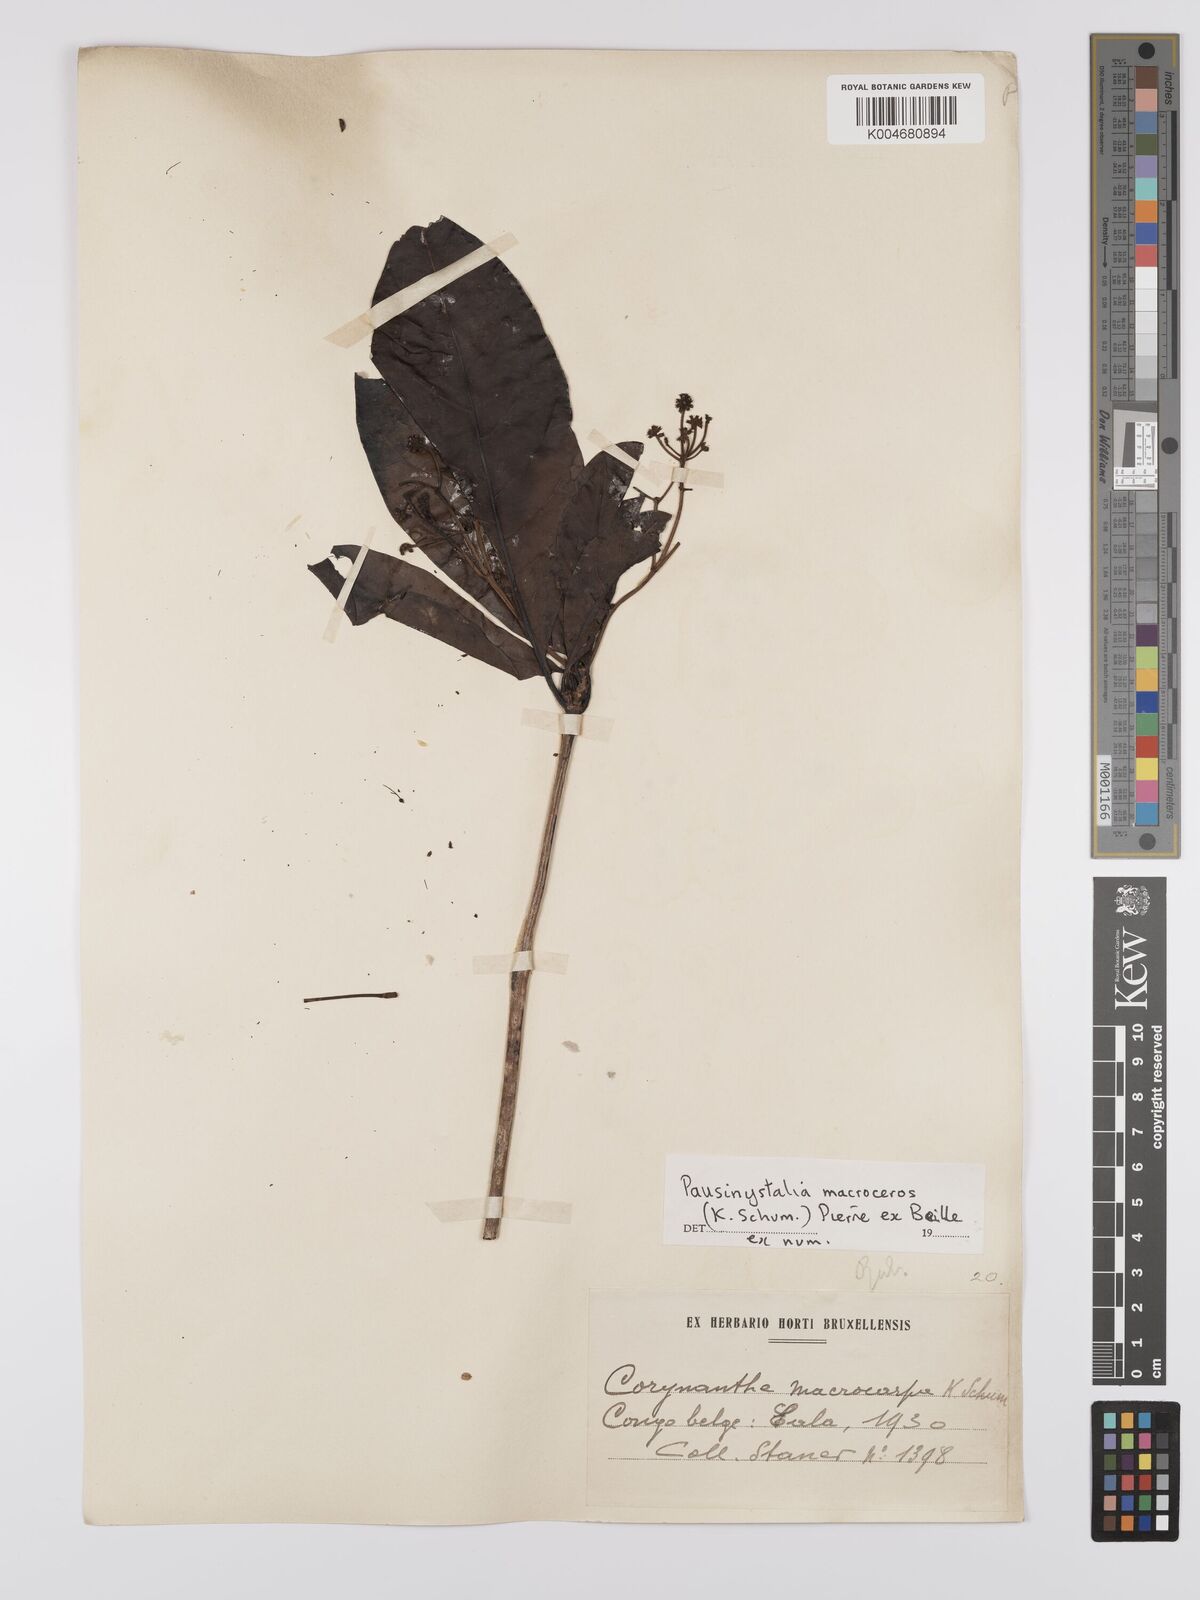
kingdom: Plantae
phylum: Tracheophyta
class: Magnoliopsida
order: Gentianales
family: Rubiaceae
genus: Corynanthe
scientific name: Corynanthe macroceras
